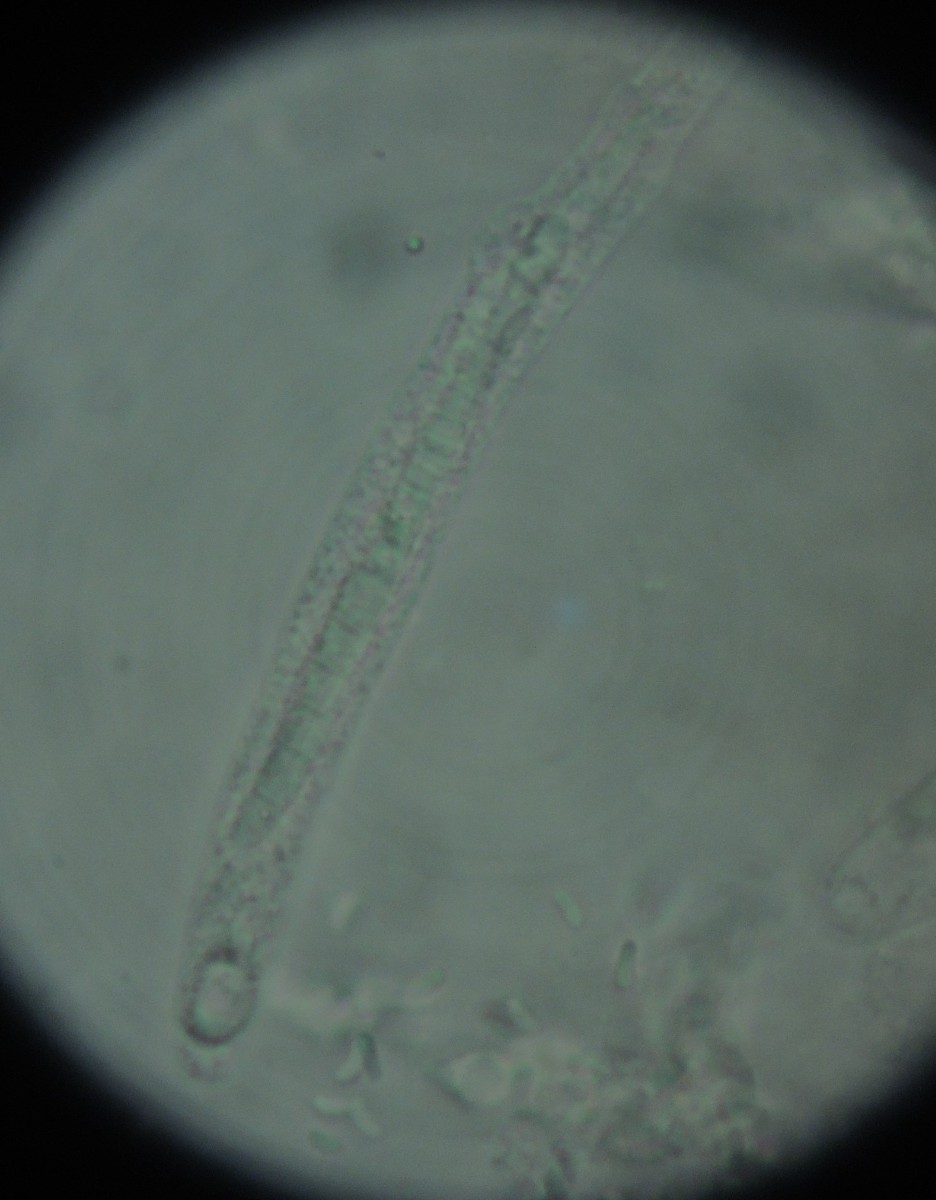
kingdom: Fungi
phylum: Ascomycota
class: Sordariomycetes
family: Thyridiaceae
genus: Thyronectria
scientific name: Thyronectria cucurbitula
